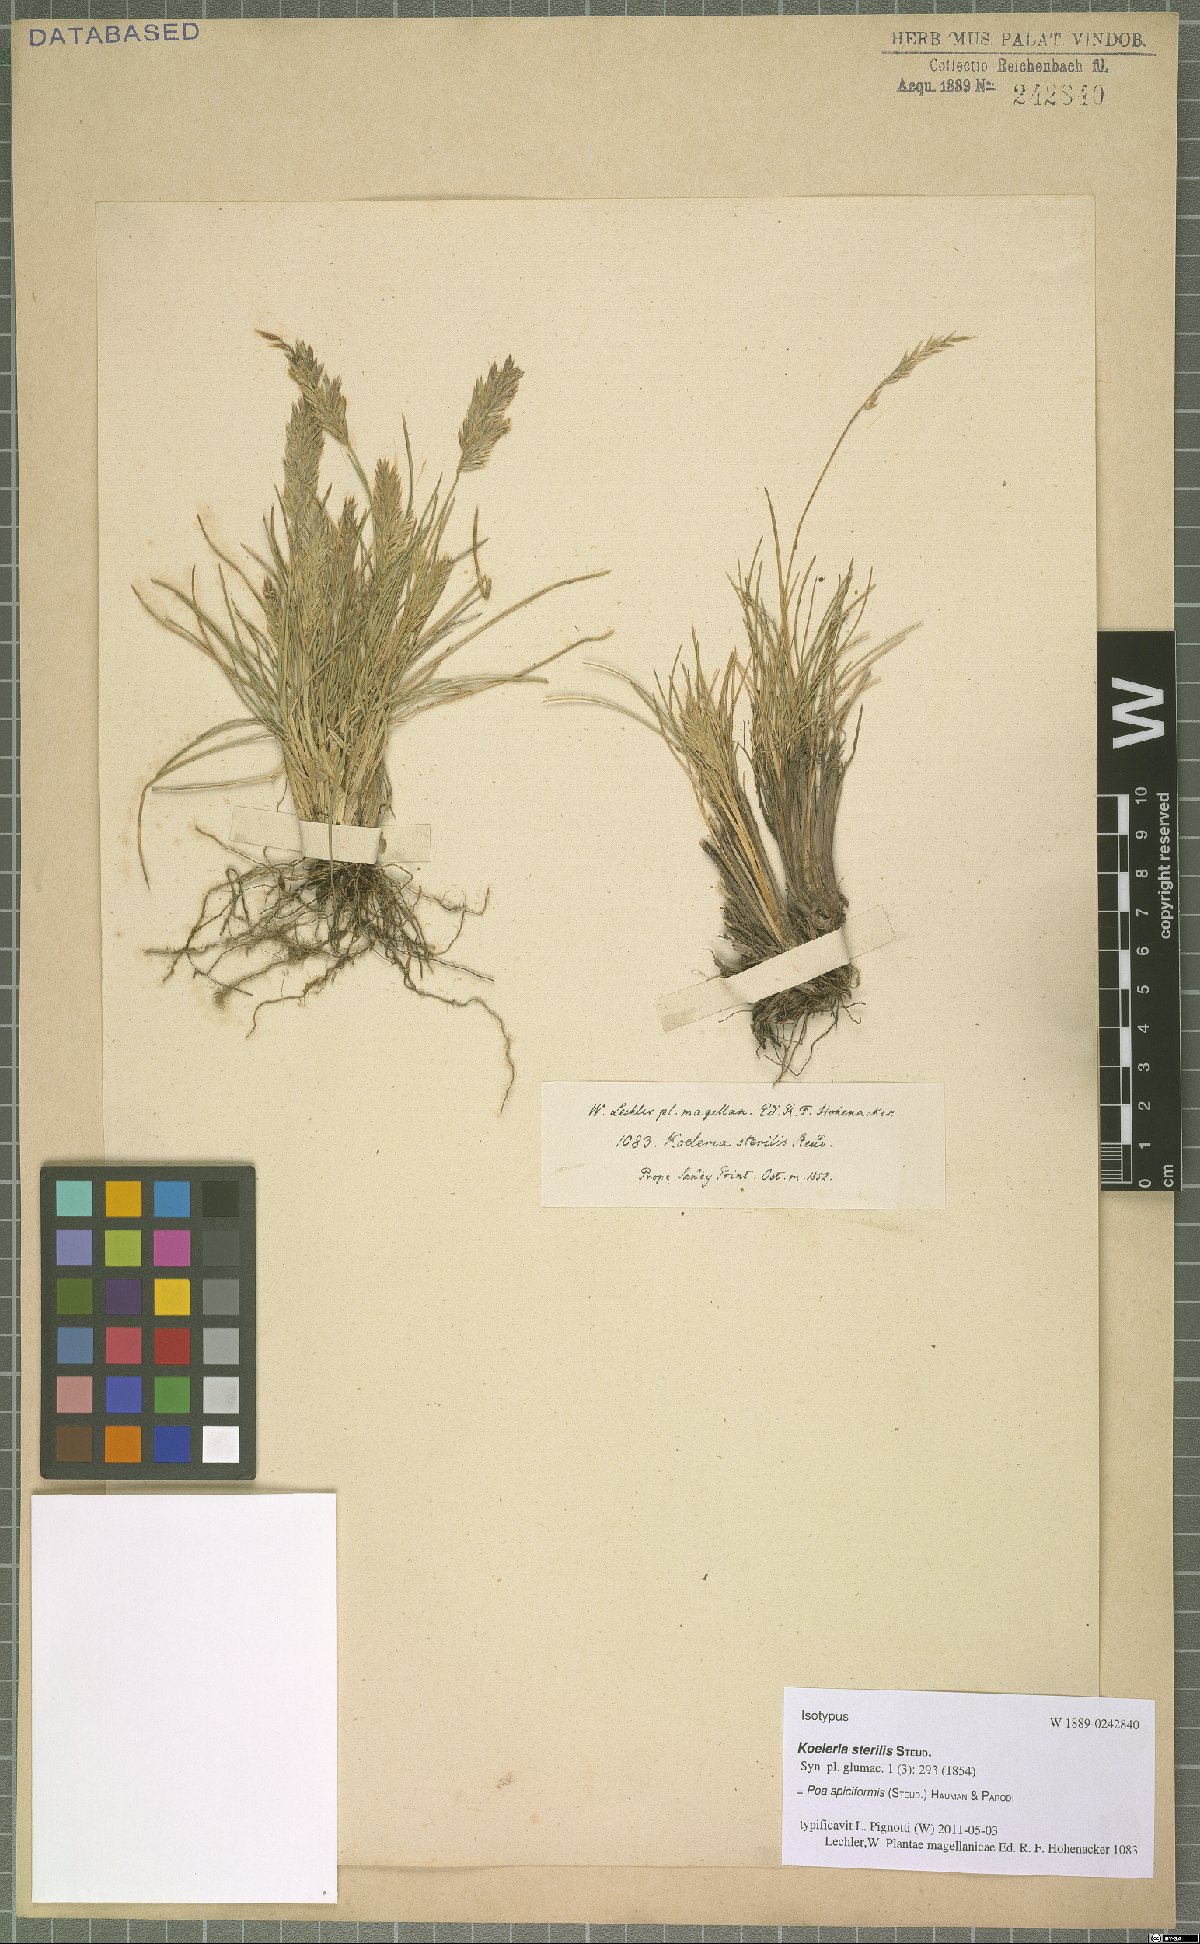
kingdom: Plantae
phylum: Tracheophyta
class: Liliopsida
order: Poales
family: Poaceae
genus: Poa
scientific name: Poa spiciformis
